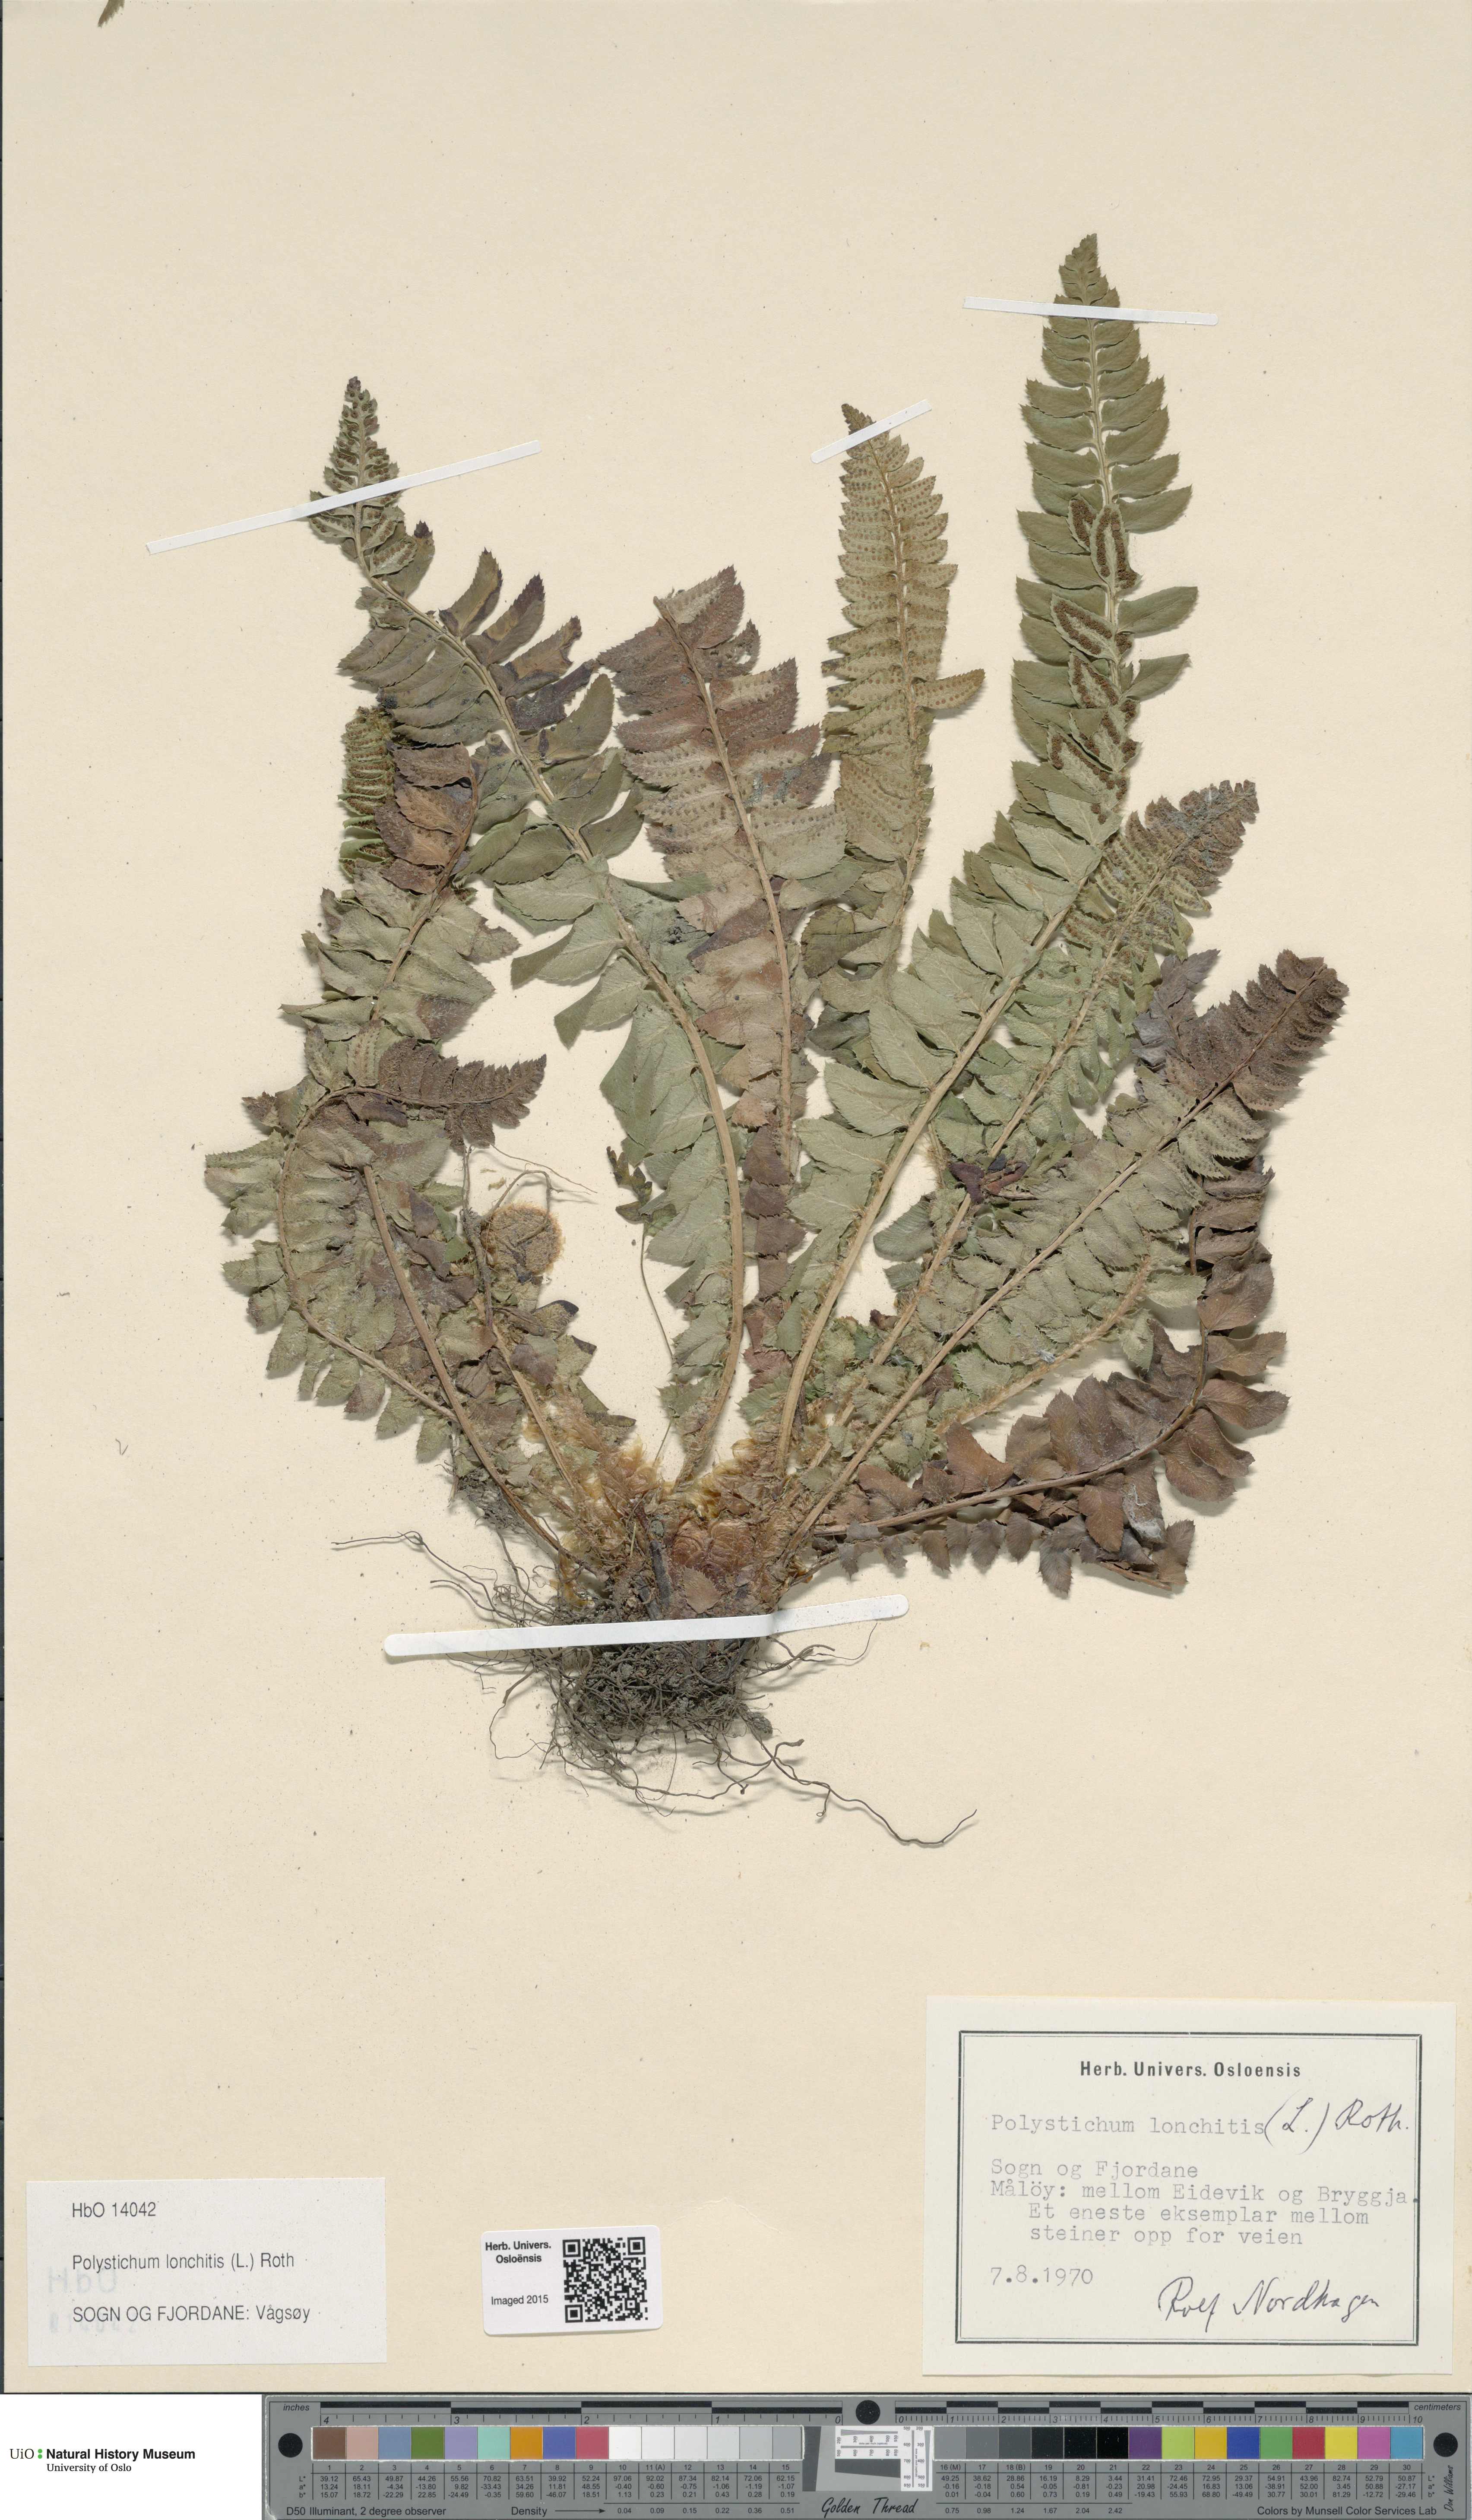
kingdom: Plantae
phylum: Tracheophyta
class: Polypodiopsida
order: Polypodiales
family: Dryopteridaceae
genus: Polystichum
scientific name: Polystichum lonchitis
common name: Holly fern
